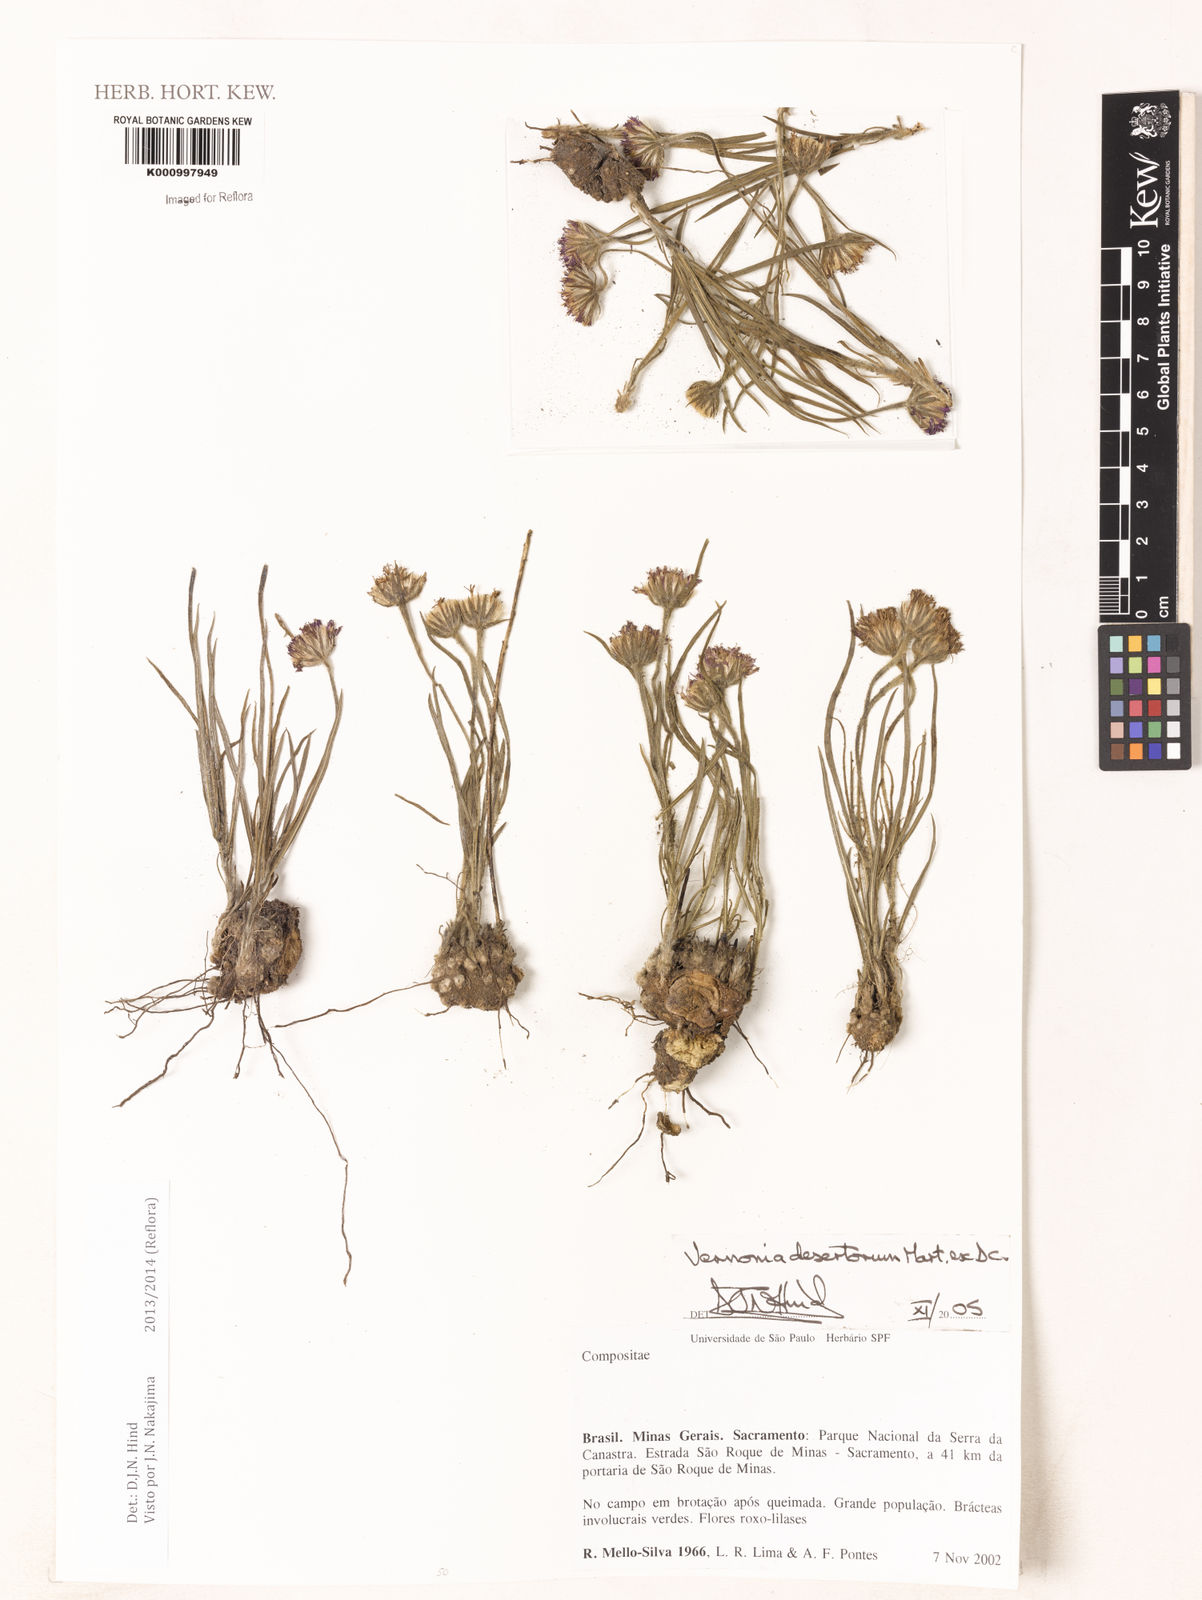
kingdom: Plantae
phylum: Tracheophyta
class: Magnoliopsida
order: Asterales
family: Asteraceae
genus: Chrysolaena
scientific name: Chrysolaena desertorum
